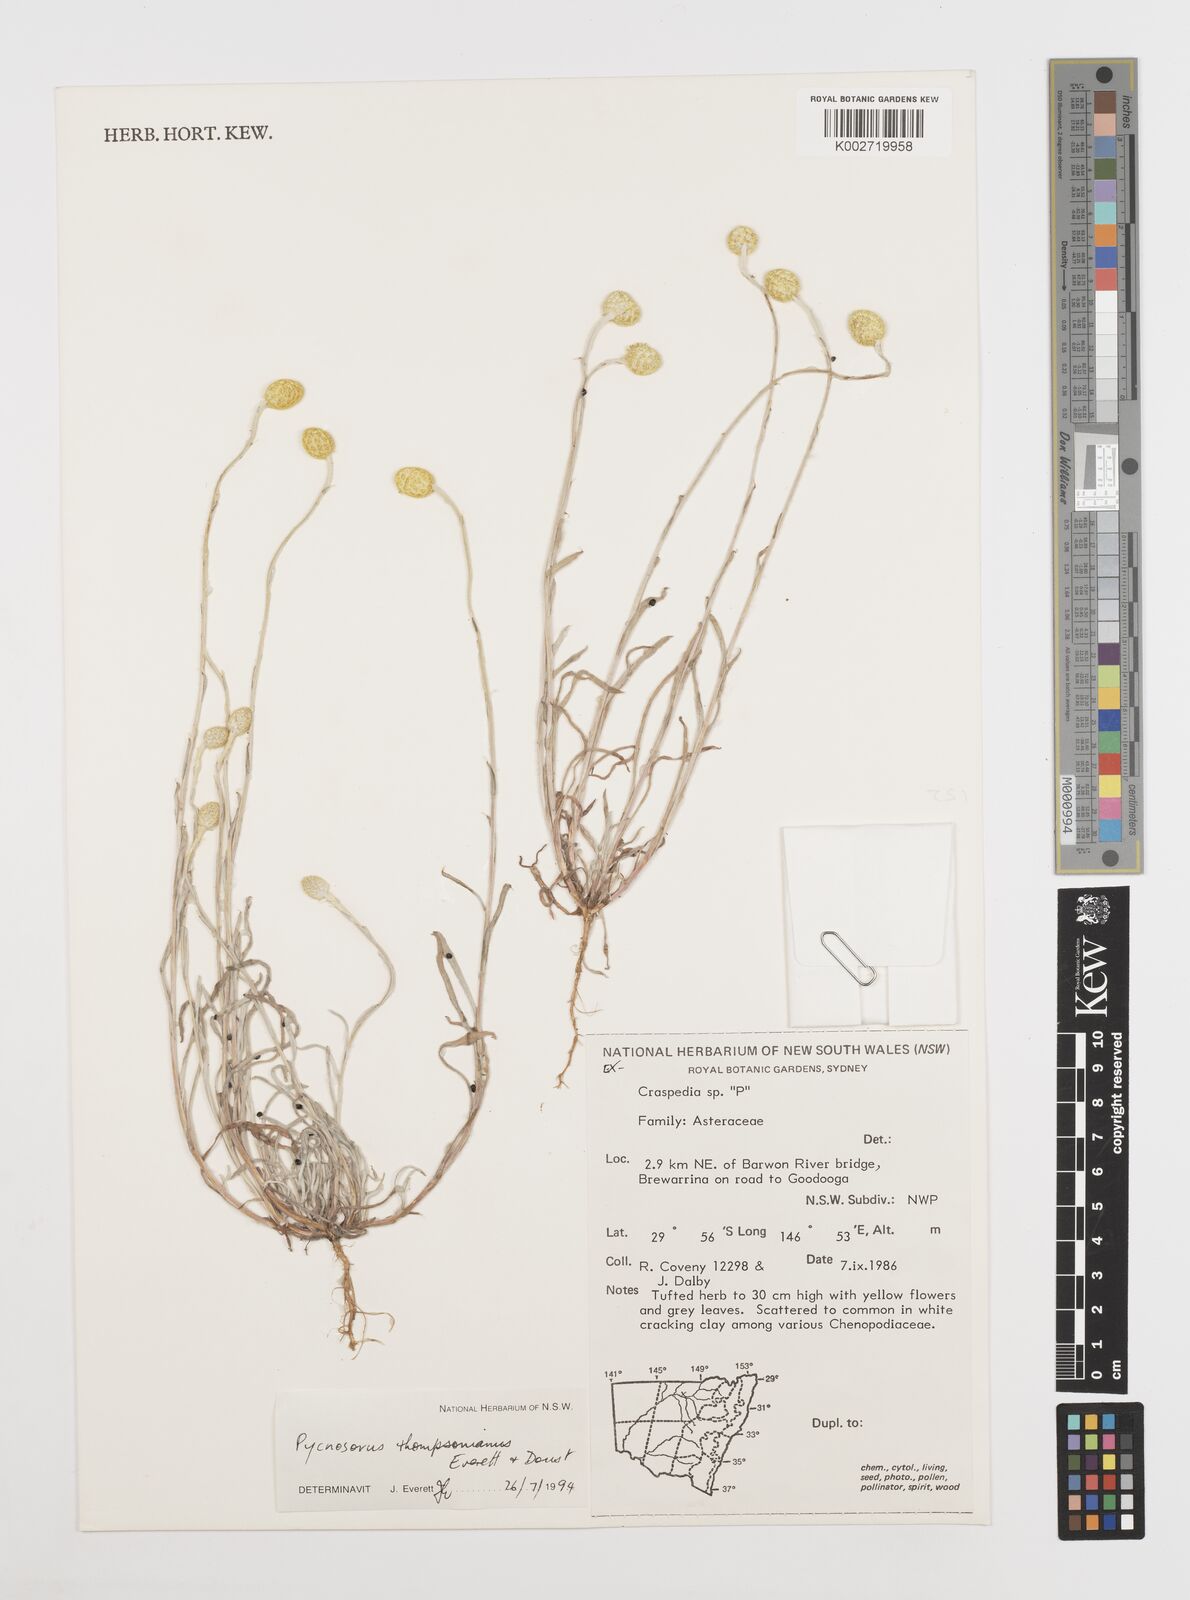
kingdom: Plantae
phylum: Tracheophyta
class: Magnoliopsida
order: Asterales
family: Asteraceae
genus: Pycnosorus
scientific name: Pycnosorus thompsonianus
